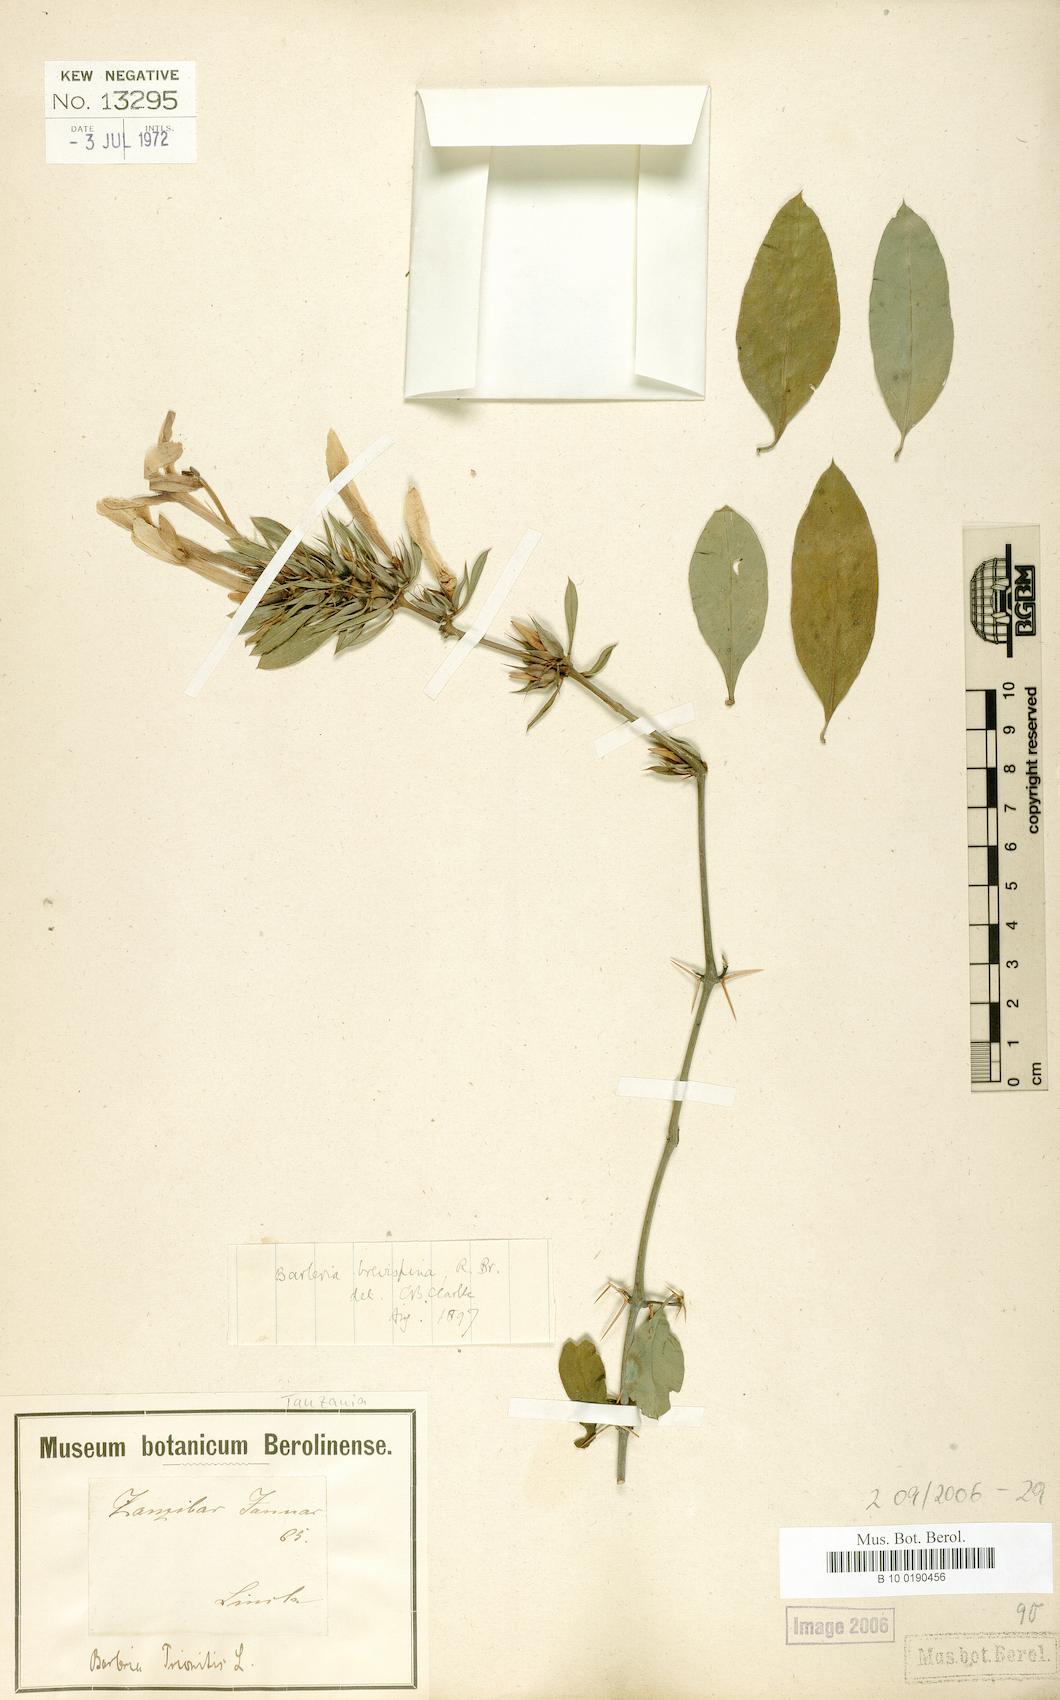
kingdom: Plantae
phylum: Tracheophyta
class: Magnoliopsida
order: Lamiales
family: Acanthaceae
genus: Barleria
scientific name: Barleria quadrispina
